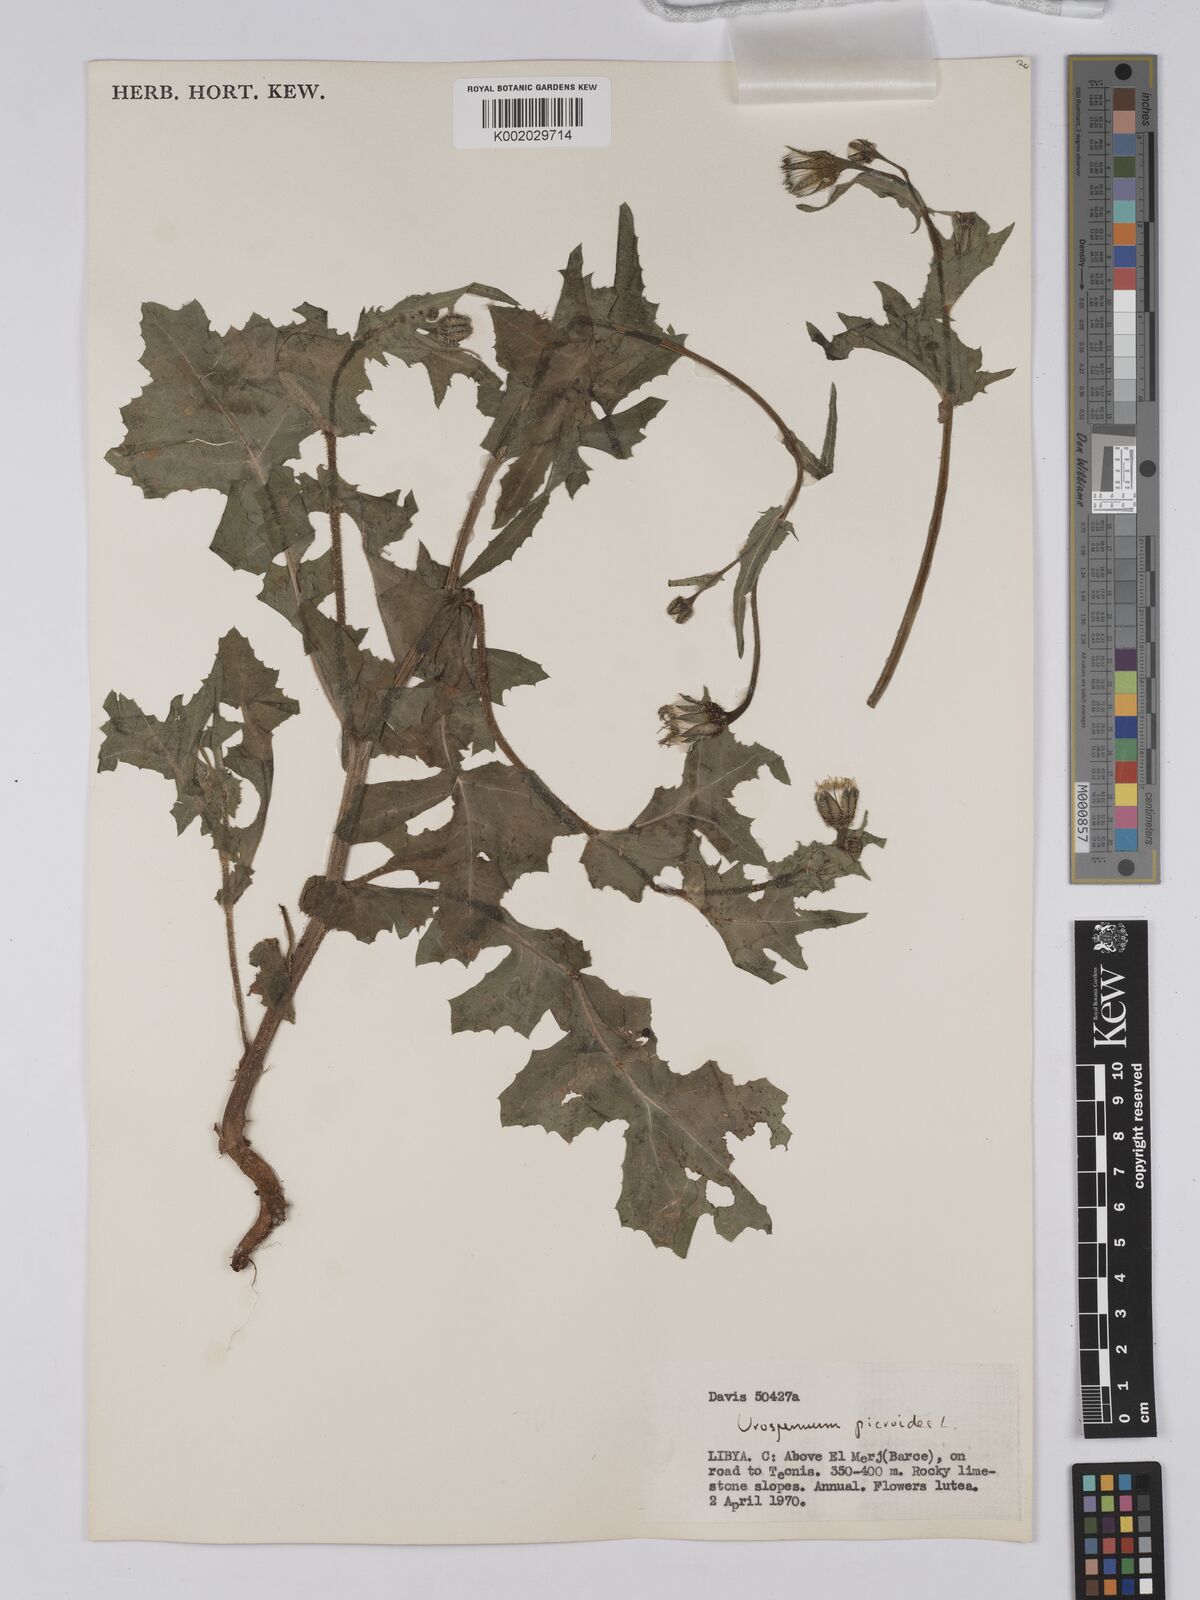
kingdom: Plantae
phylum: Tracheophyta
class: Magnoliopsida
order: Asterales
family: Asteraceae
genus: Urospermum
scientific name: Urospermum picroides
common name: False hawkbit
